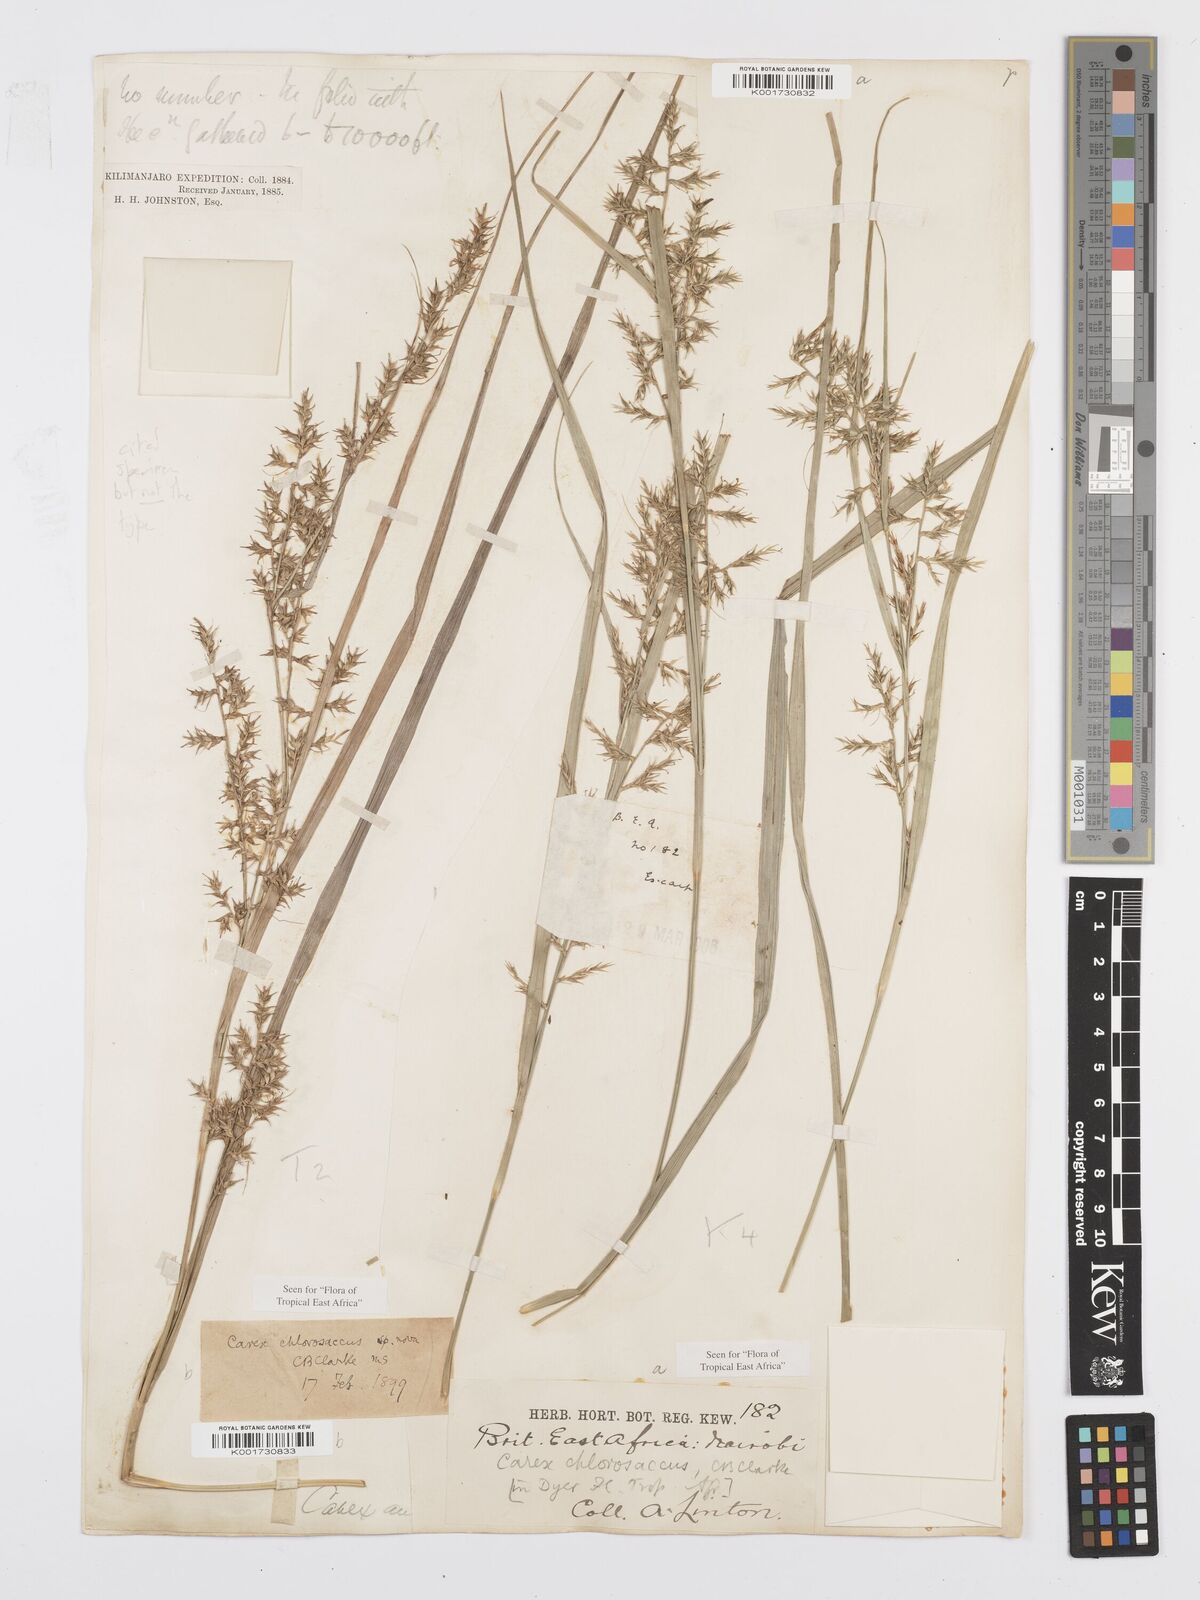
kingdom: Plantae
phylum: Tracheophyta
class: Liliopsida
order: Poales
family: Cyperaceae
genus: Carex
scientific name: Carex chlorosaccus
